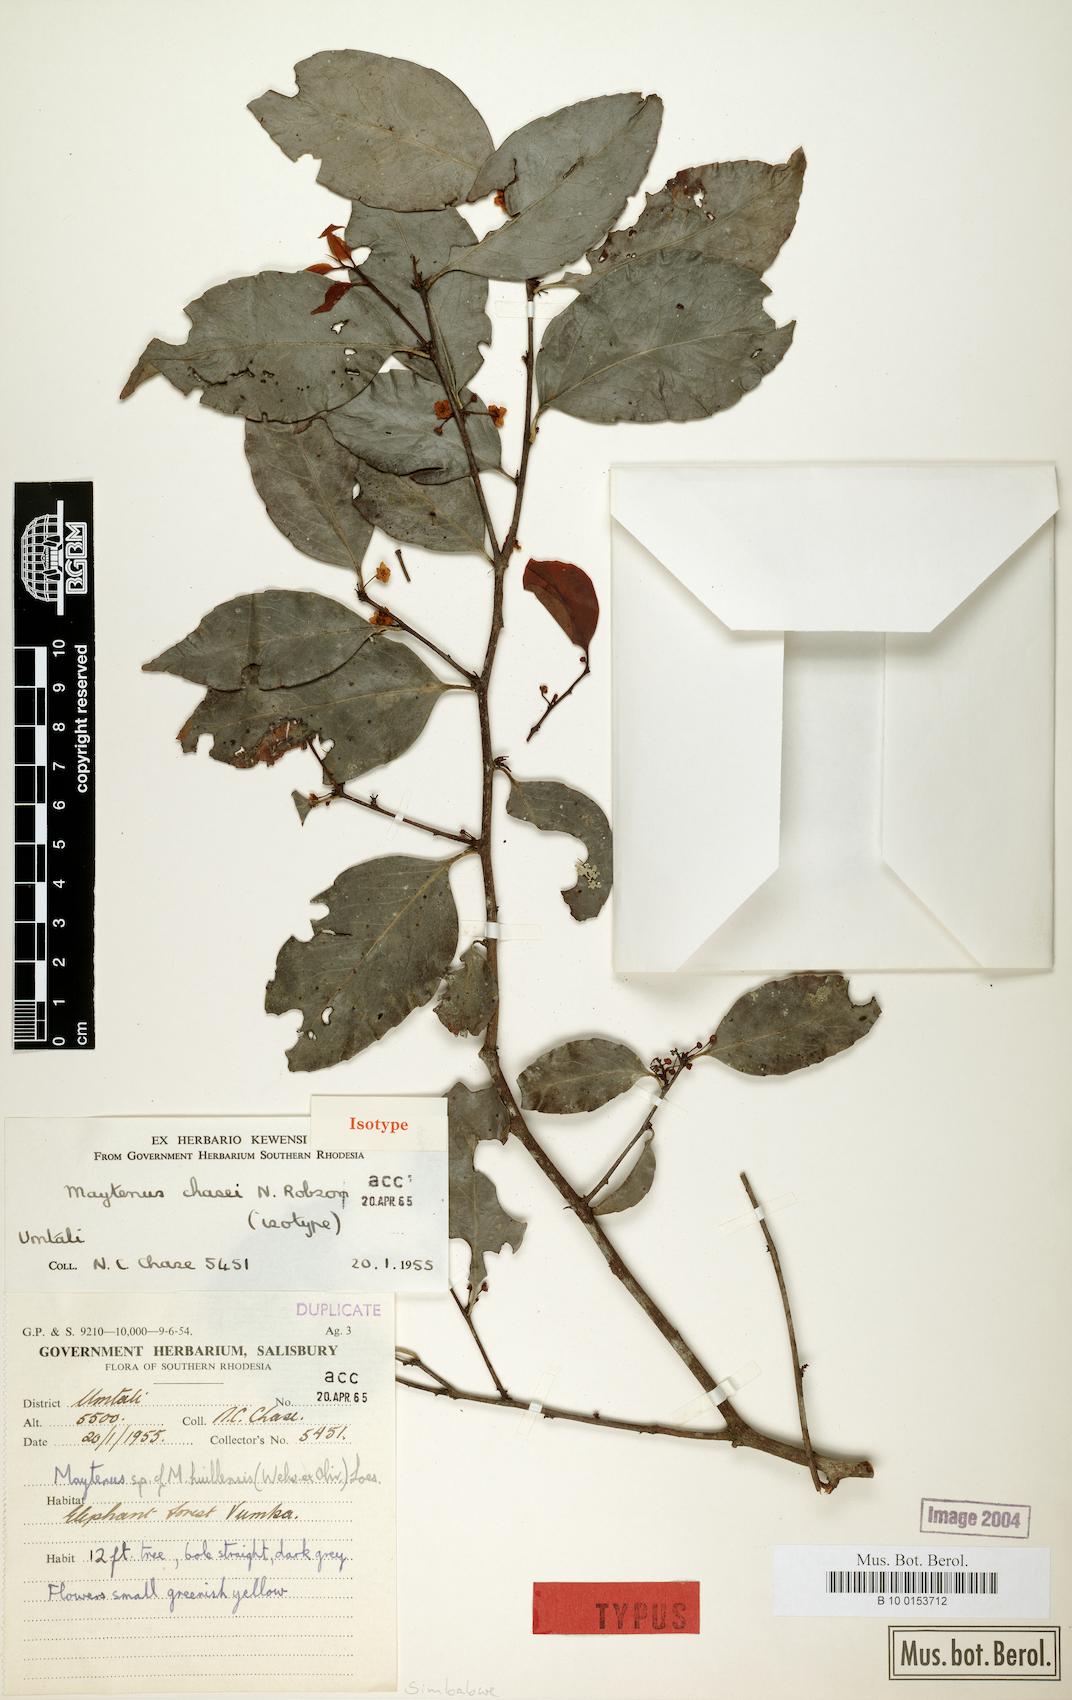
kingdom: Plantae
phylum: Tracheophyta
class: Magnoliopsida
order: Celastrales
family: Celastraceae
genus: Gymnosporia
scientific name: Gymnosporia chasei
